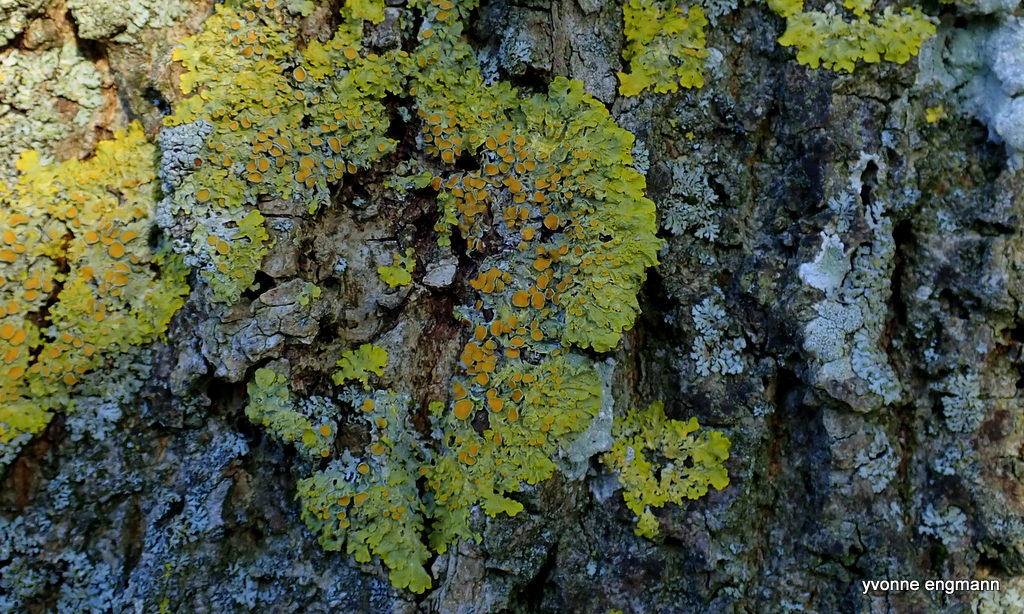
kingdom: Fungi
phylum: Ascomycota
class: Lecanoromycetes
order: Teloschistales
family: Teloschistaceae
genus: Xanthoria
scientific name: Xanthoria parietina
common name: almindelig væggelav
